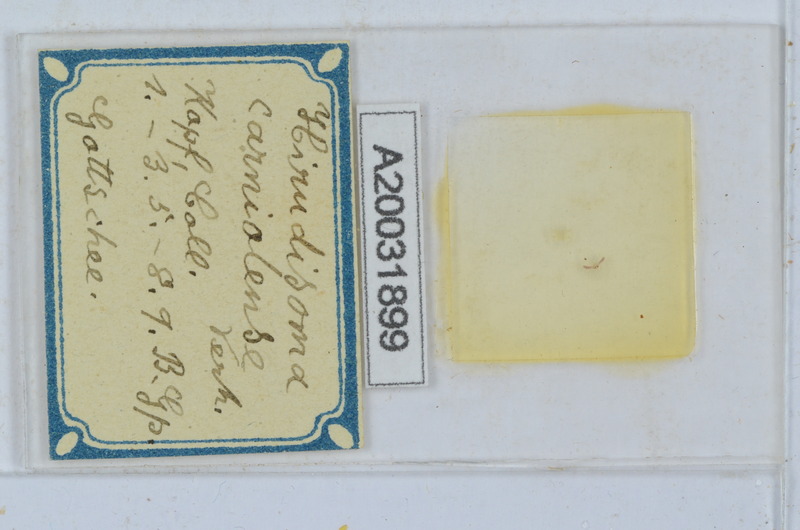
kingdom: Animalia
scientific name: Animalia
